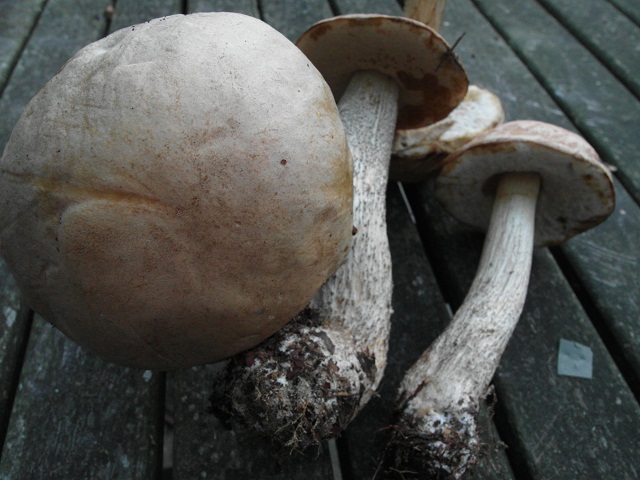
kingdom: Fungi
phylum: Basidiomycota
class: Agaricomycetes
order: Boletales
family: Boletaceae
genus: Leccinum
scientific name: Leccinum scabrum
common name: brun skælrørhat
